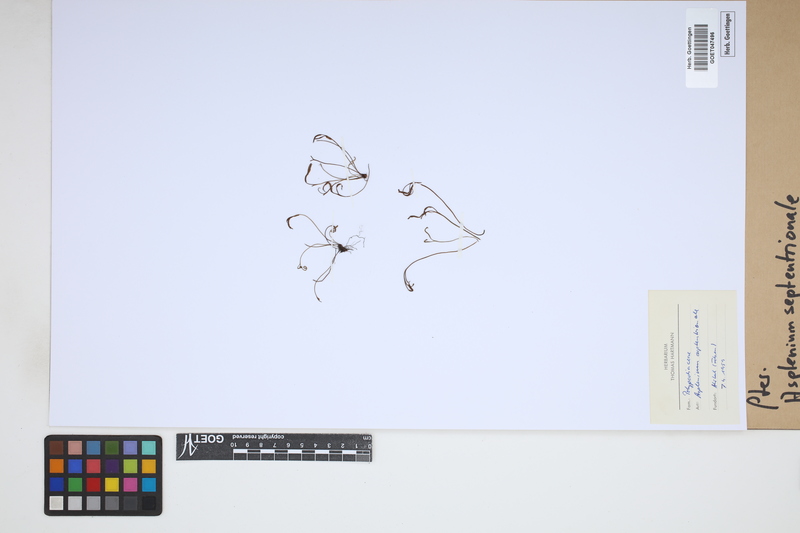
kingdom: Plantae
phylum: Tracheophyta
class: Polypodiopsida
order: Polypodiales
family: Aspleniaceae
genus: Asplenium
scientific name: Asplenium septentrionale
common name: Forked spleenwort
